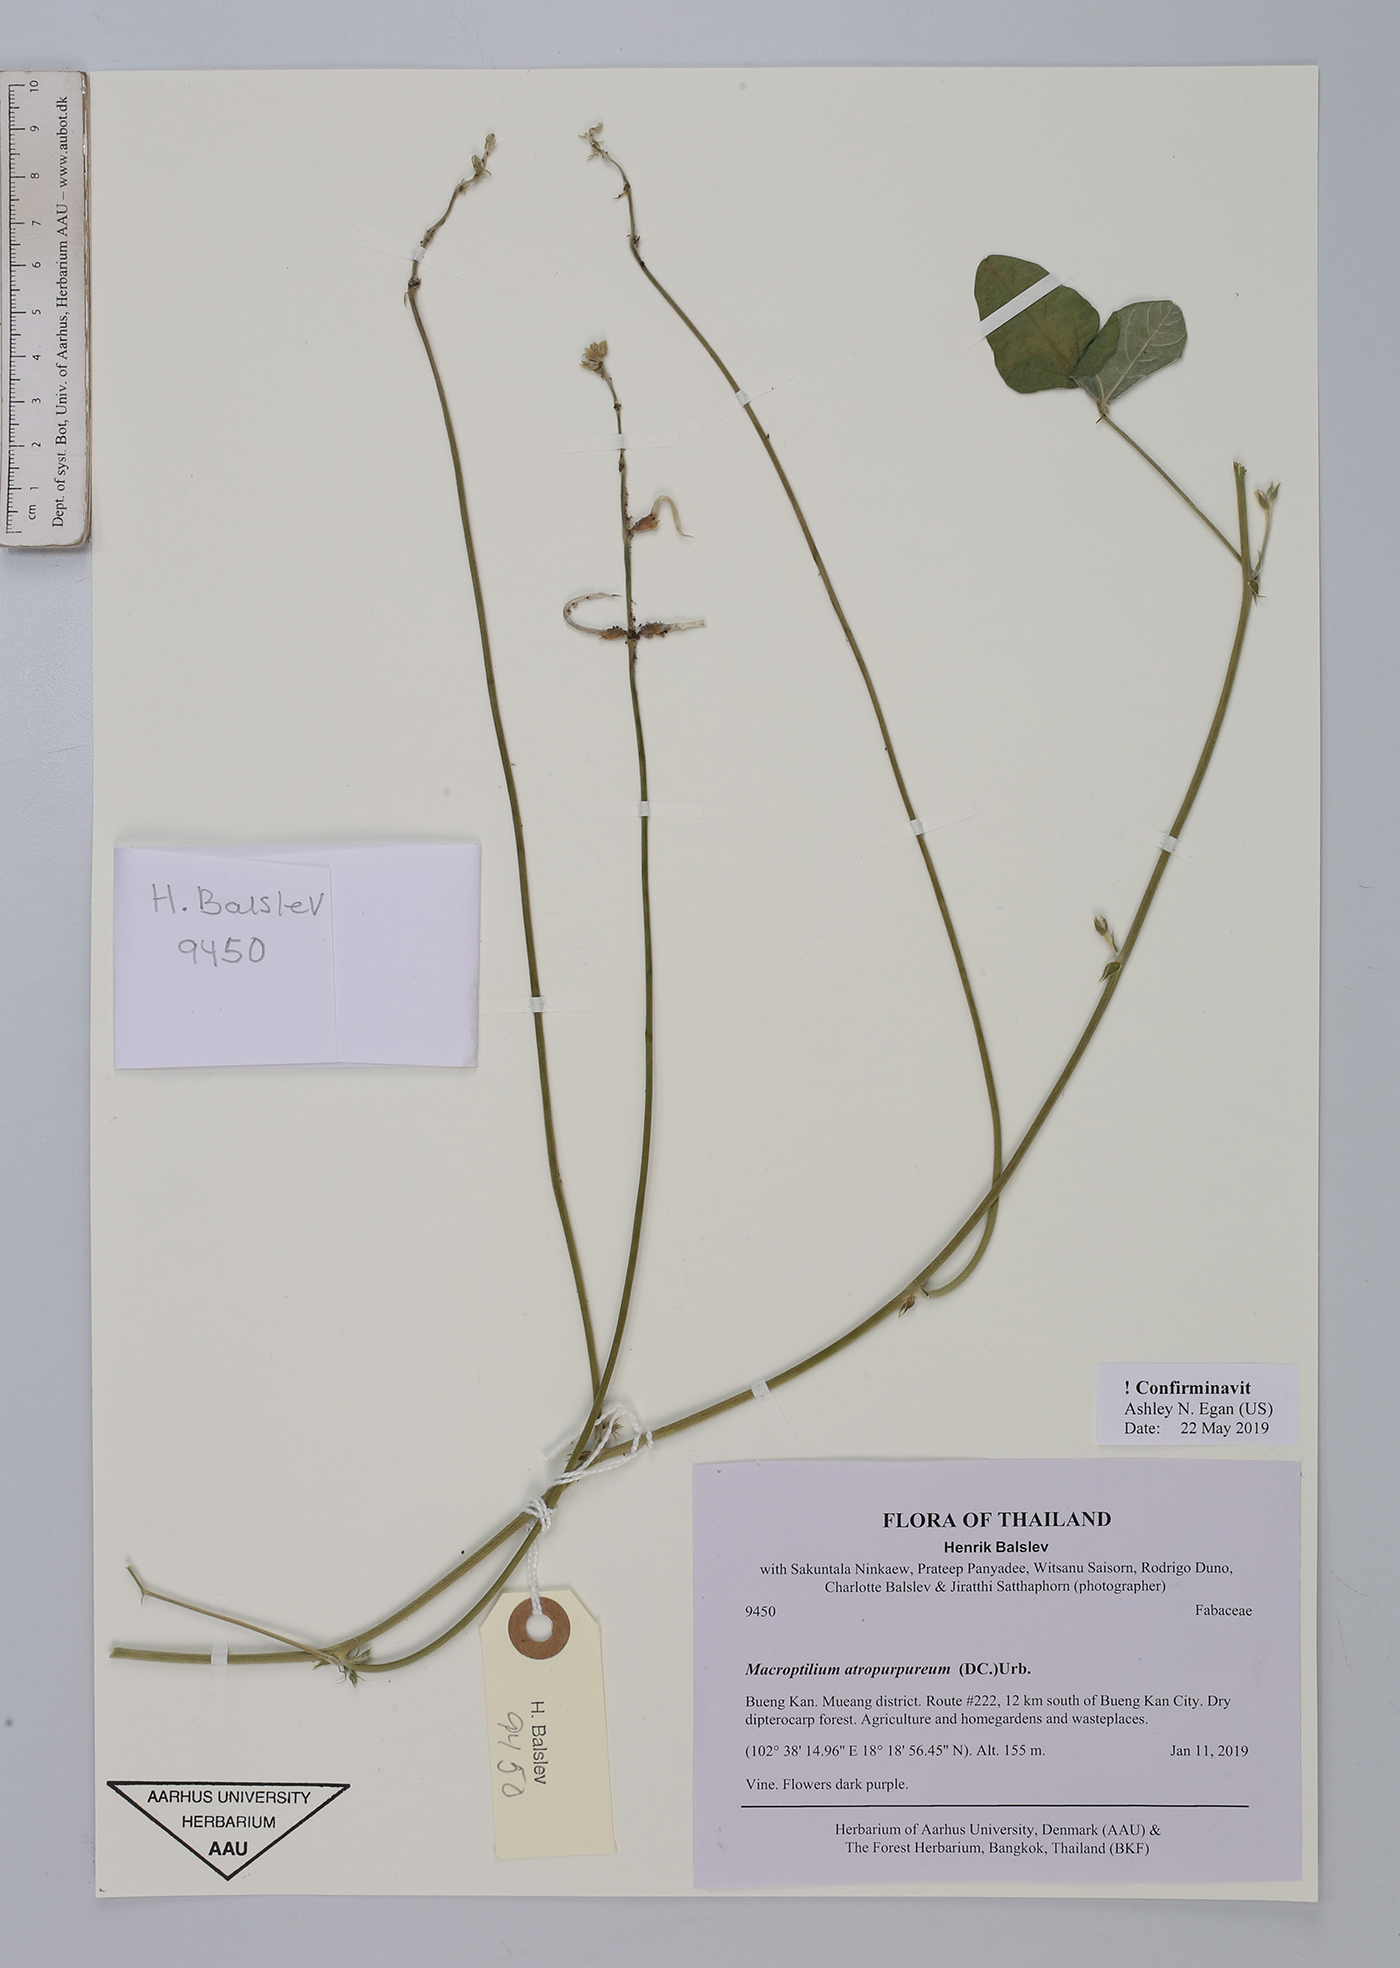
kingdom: Plantae
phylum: Tracheophyta
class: Magnoliopsida
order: Fabales
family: Fabaceae
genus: Macroptilium
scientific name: Macroptilium atropurpureum
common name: Purple bushbean
